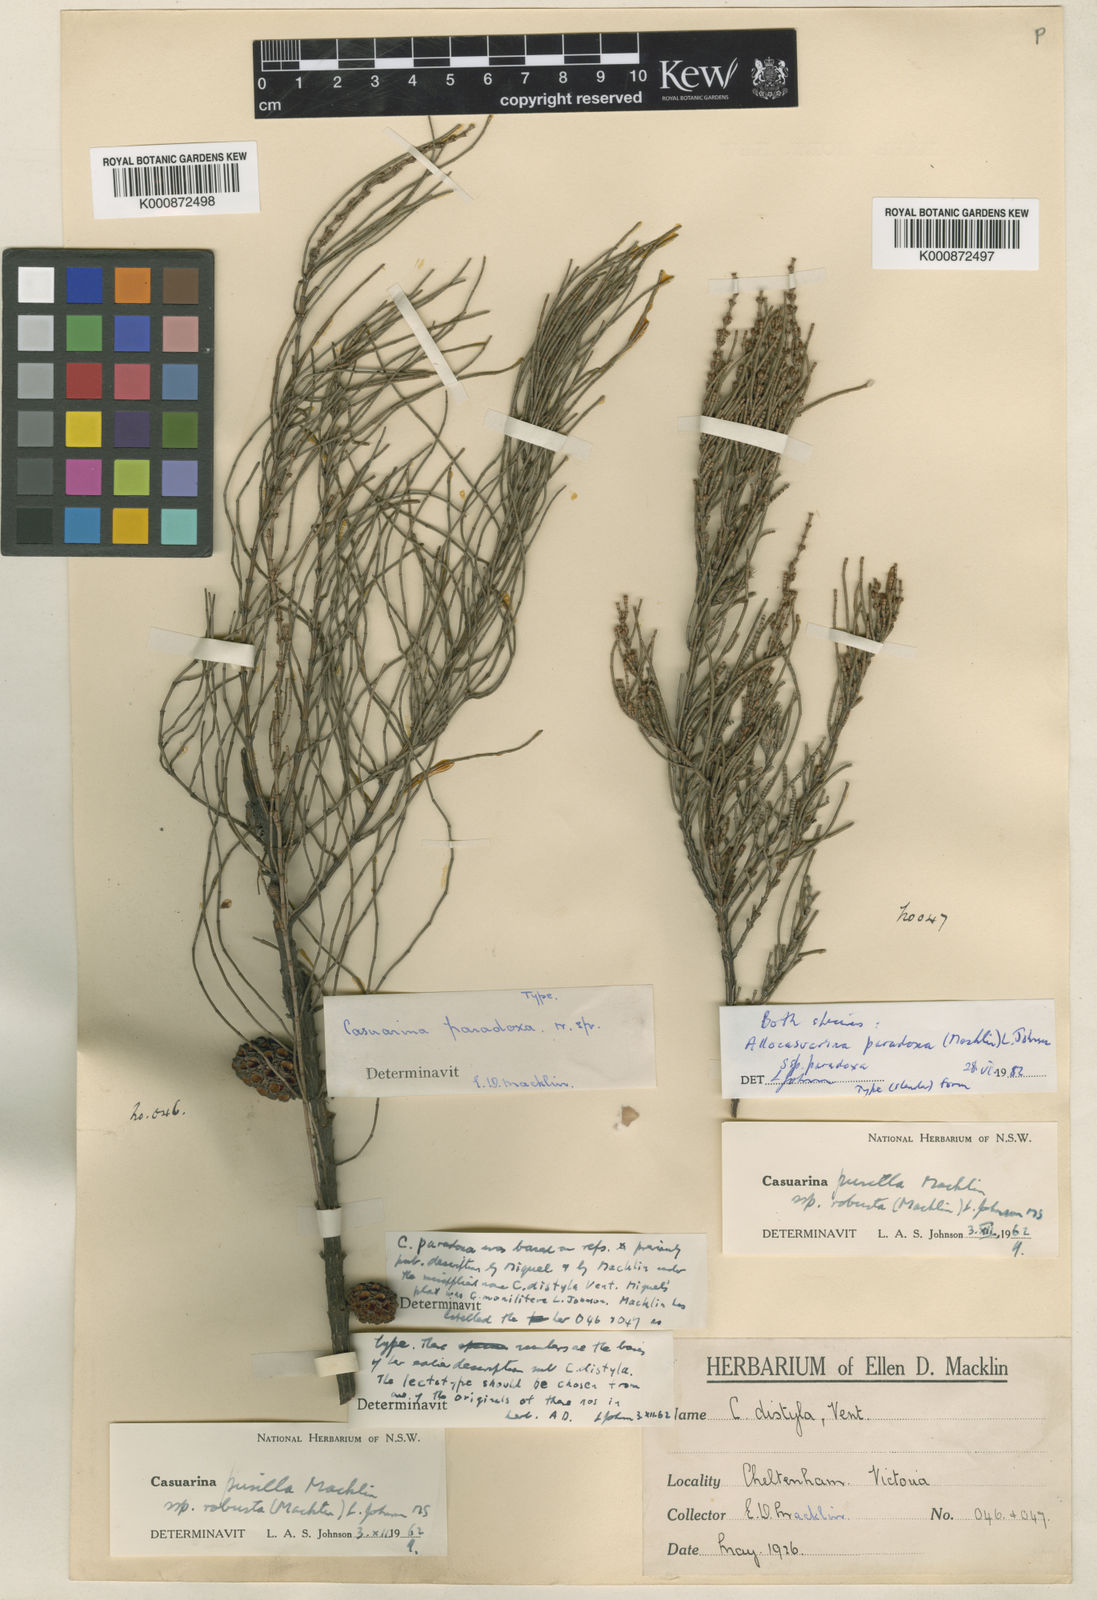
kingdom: Plantae
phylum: Tracheophyta
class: Magnoliopsida
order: Fagales
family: Casuarinaceae
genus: Allocasuarina
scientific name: Allocasuarina paradoxa
